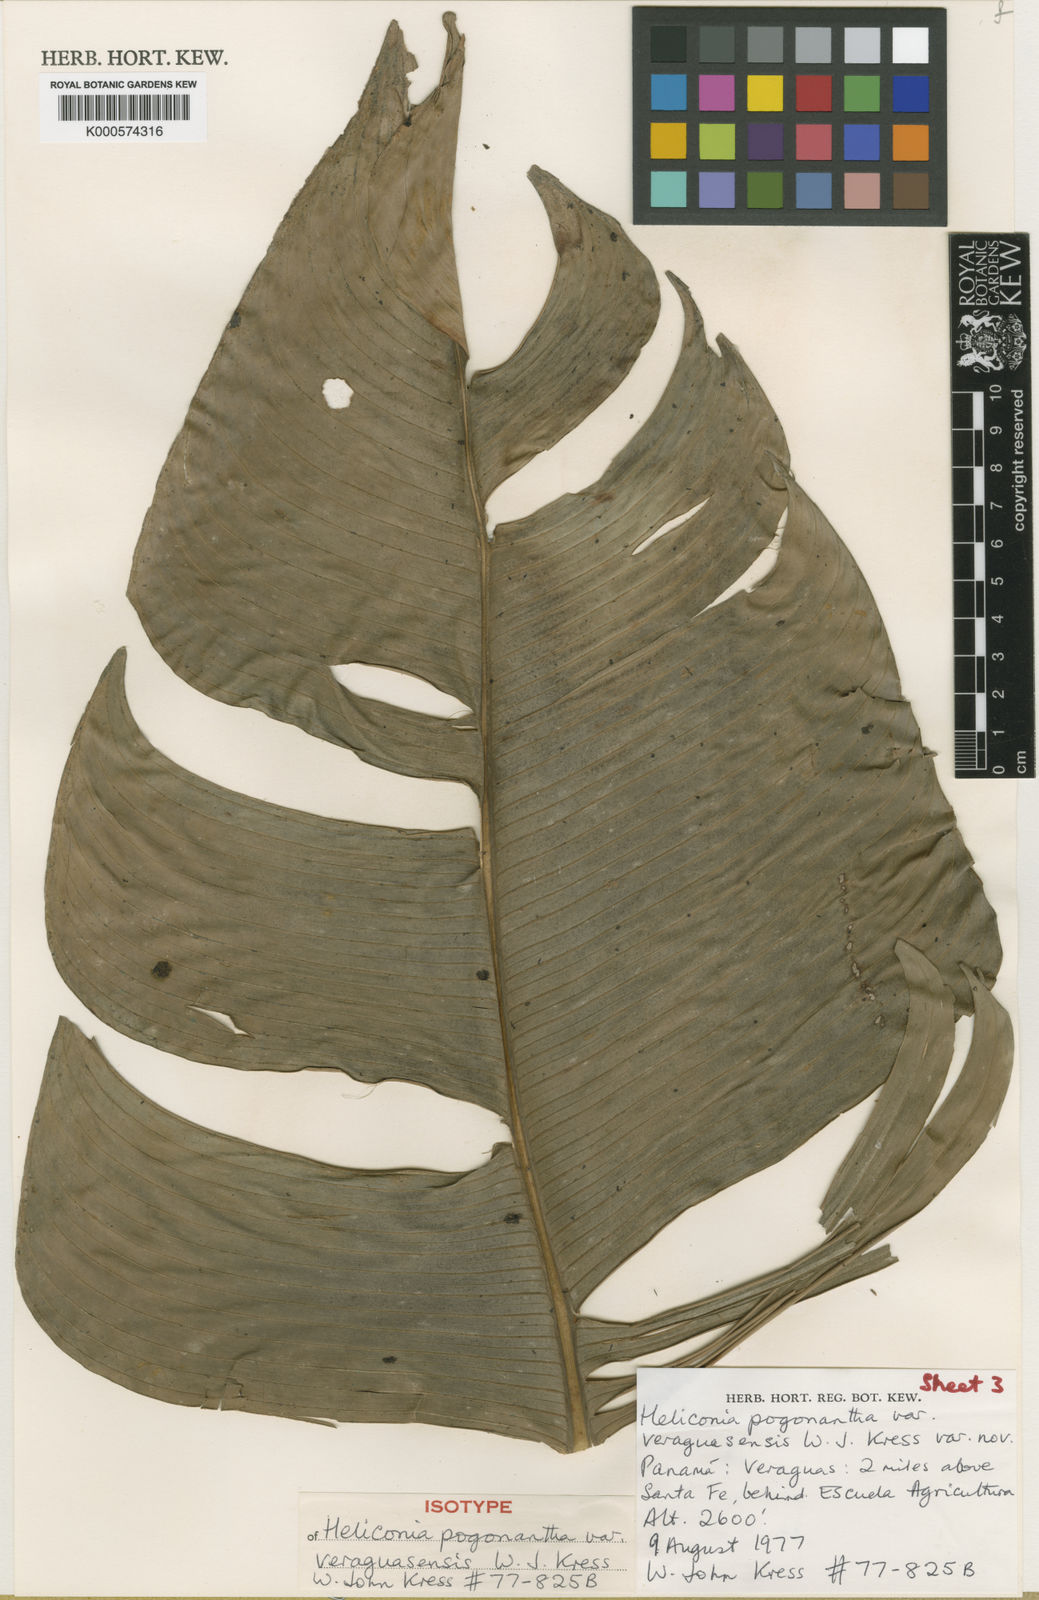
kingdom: Plantae
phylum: Tracheophyta
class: Liliopsida
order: Zingiberales
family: Heliconiaceae
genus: Heliconia
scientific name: Heliconia pogonantha
